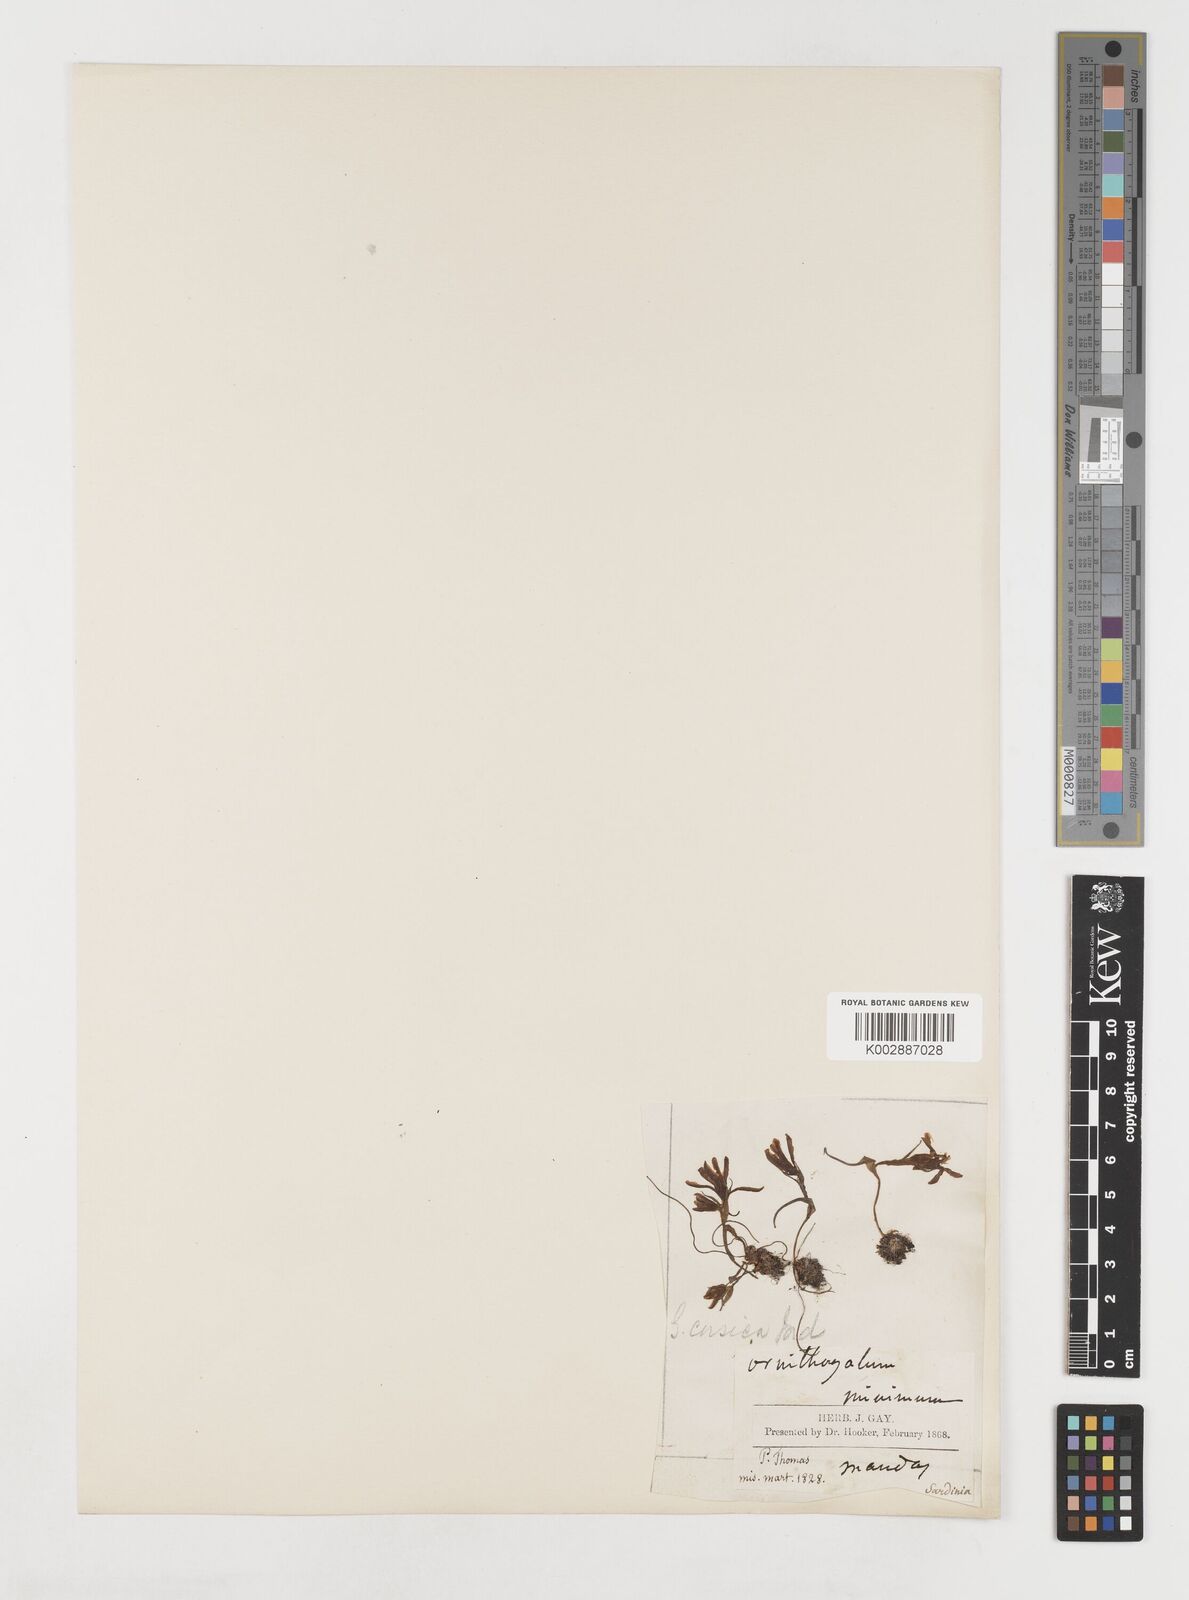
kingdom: Plantae
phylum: Tracheophyta
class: Liliopsida
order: Liliales
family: Liliaceae
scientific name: Liliaceae
